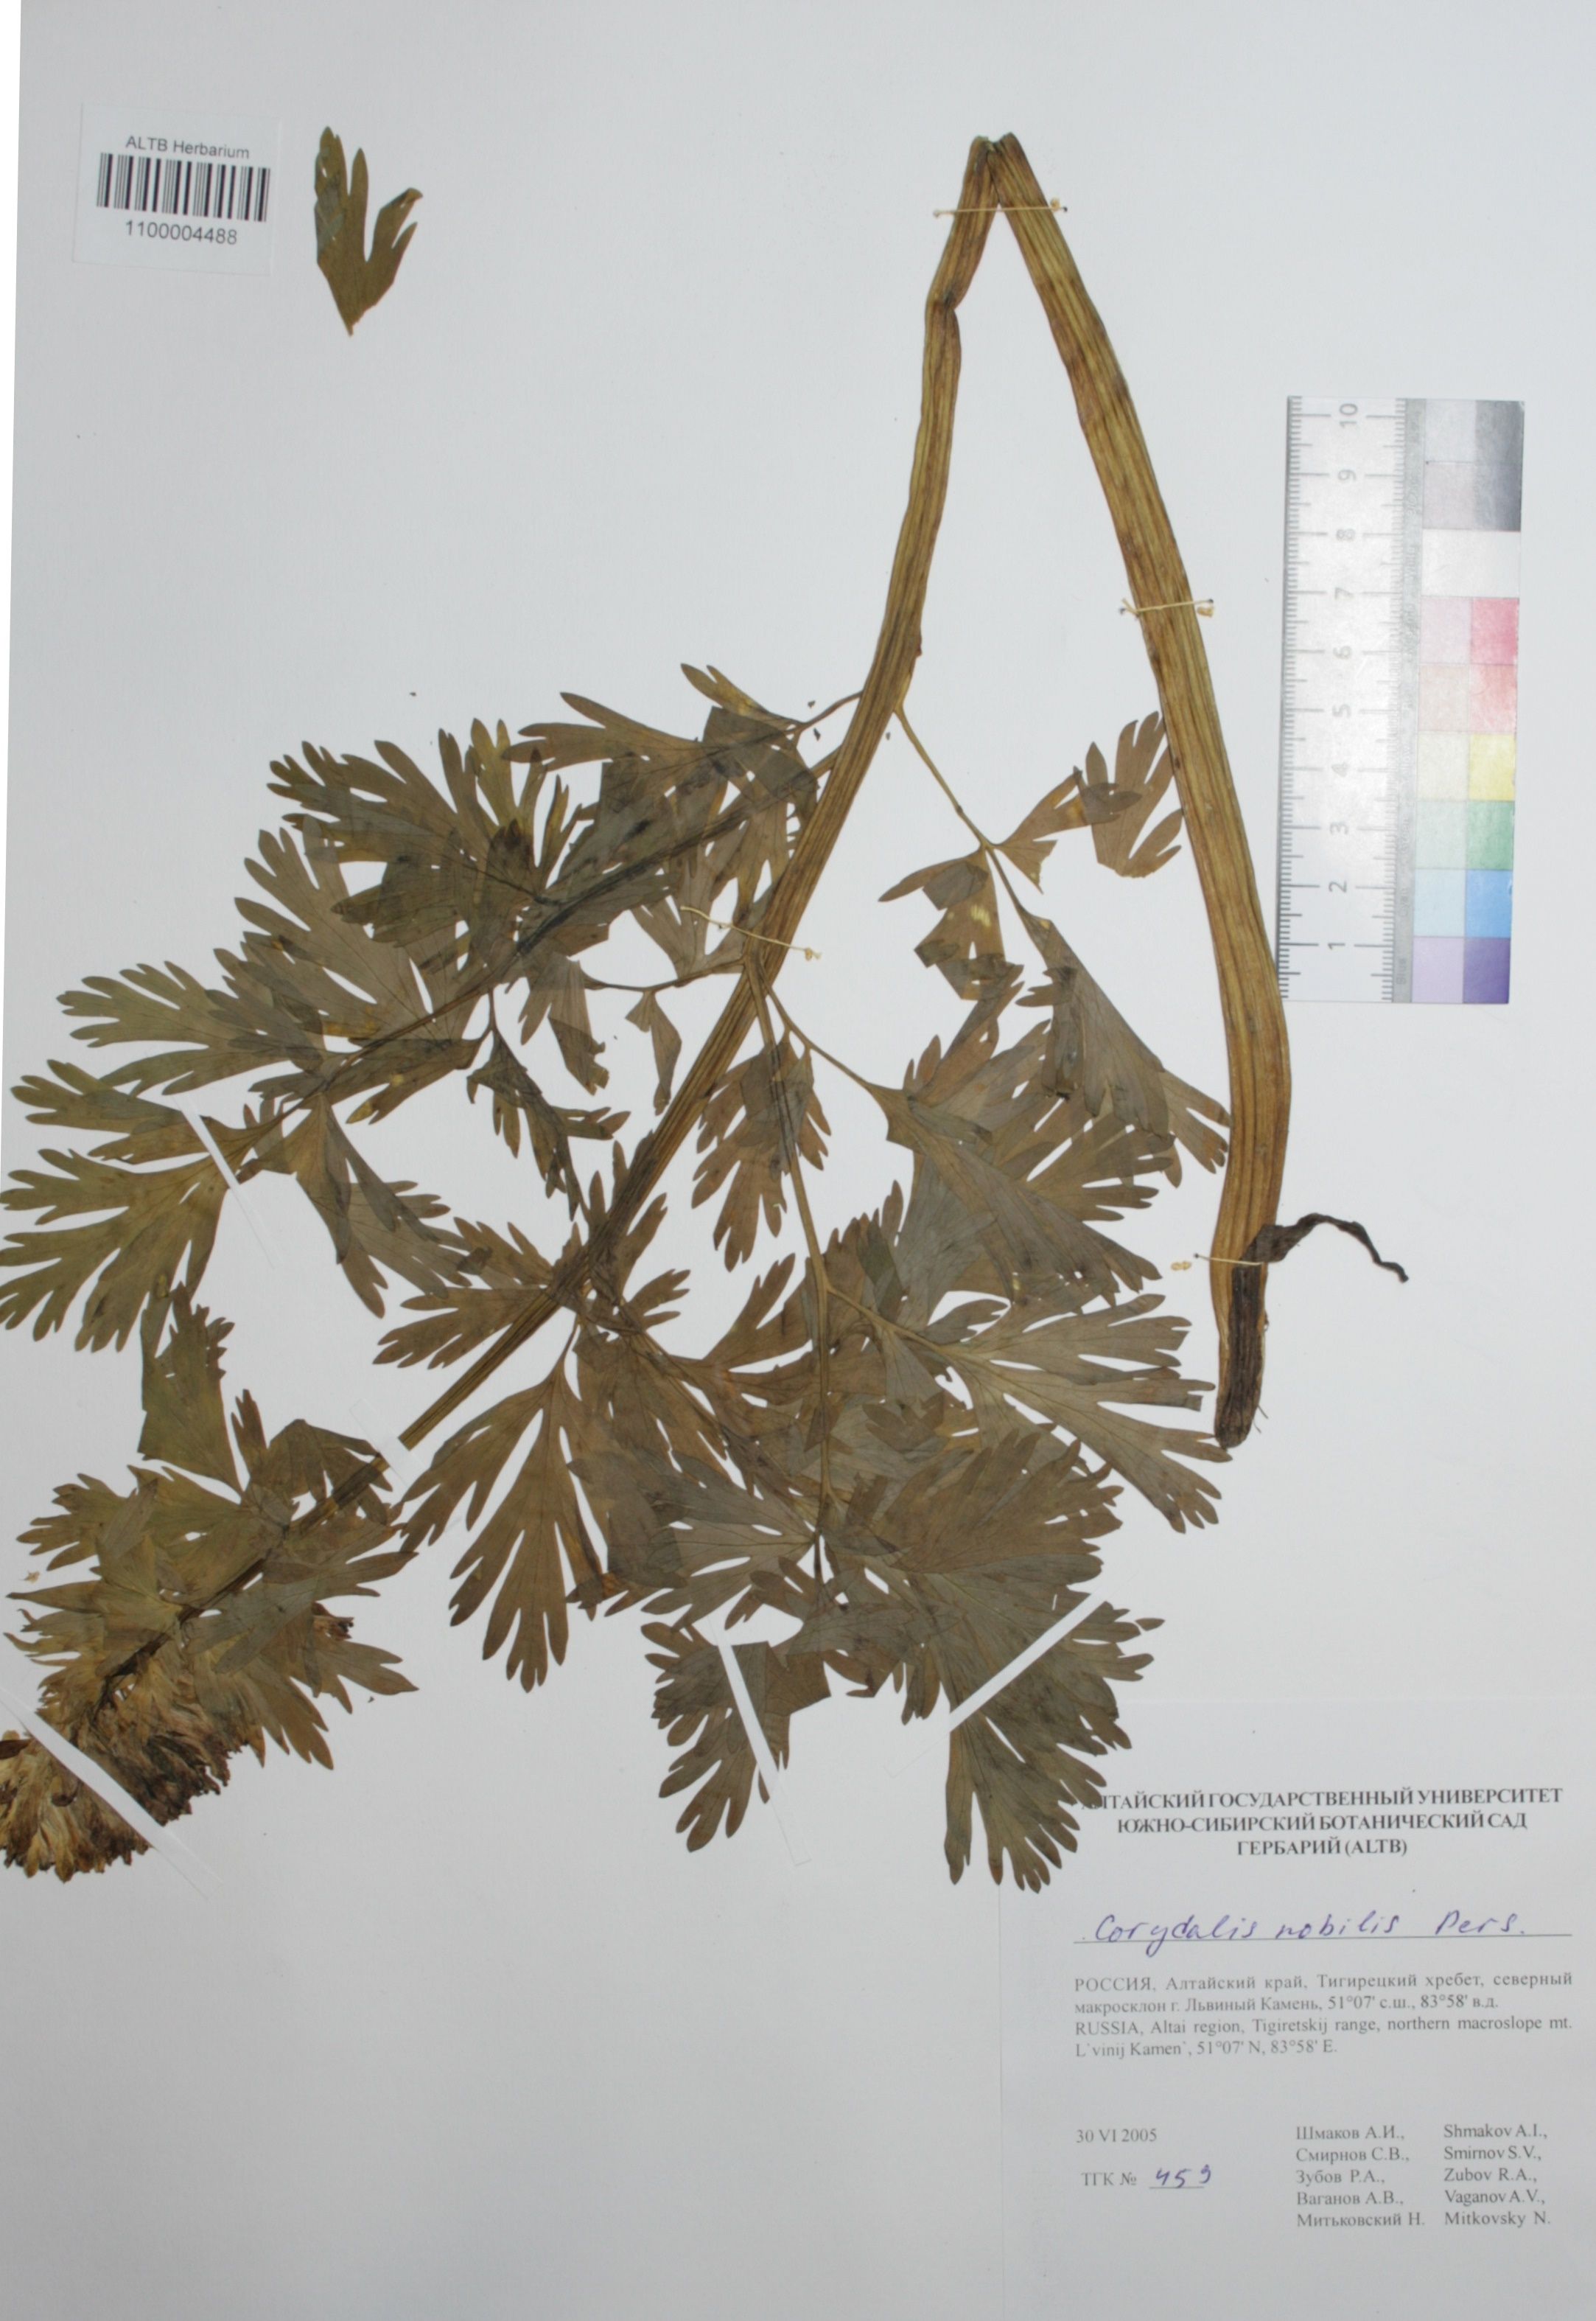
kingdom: Plantae
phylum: Tracheophyta
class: Magnoliopsida
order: Ranunculales
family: Papaveraceae
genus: Corydalis
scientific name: Corydalis nobilis
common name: Siberian corydalis
